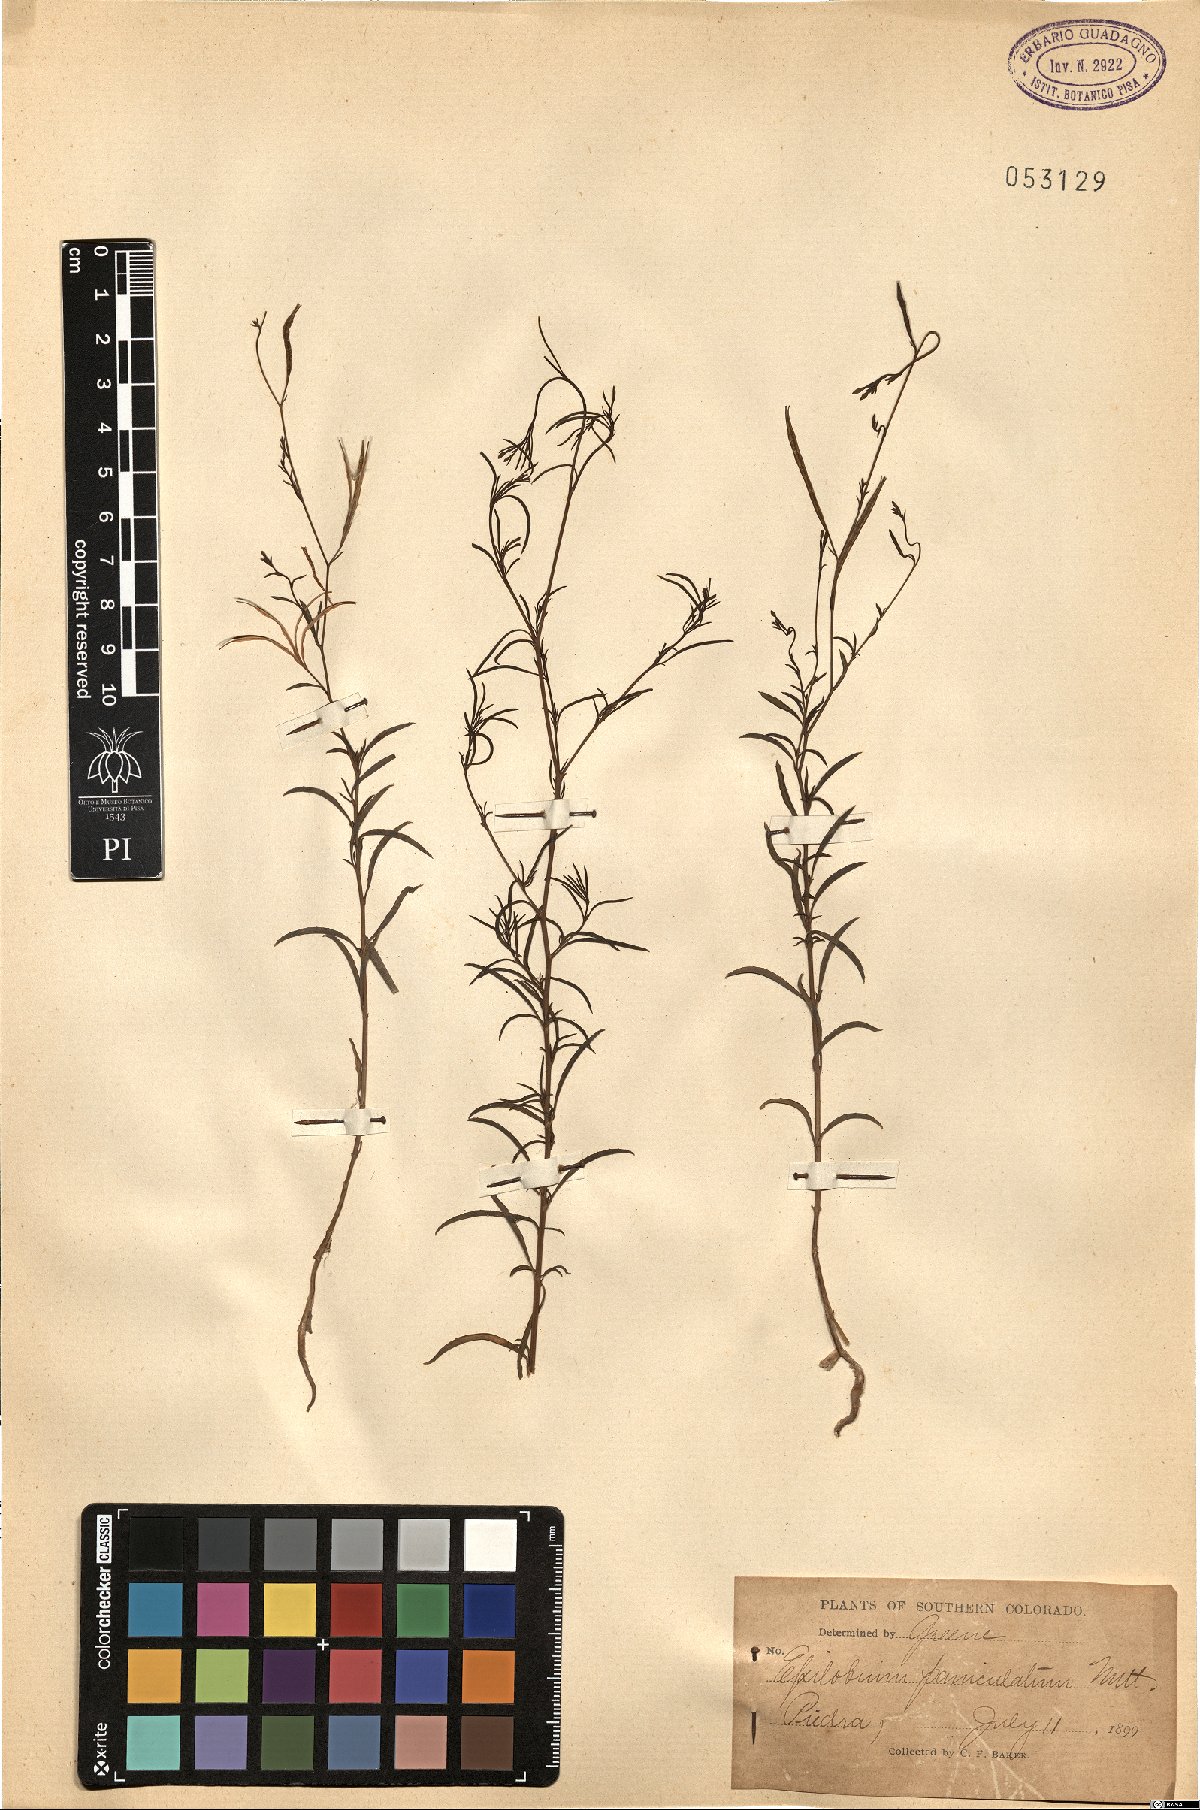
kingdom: Plantae
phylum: Tracheophyta
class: Magnoliopsida
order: Myrtales
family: Onagraceae
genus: Epilobium
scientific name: Epilobium brachycarpum
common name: Annual willowherb
